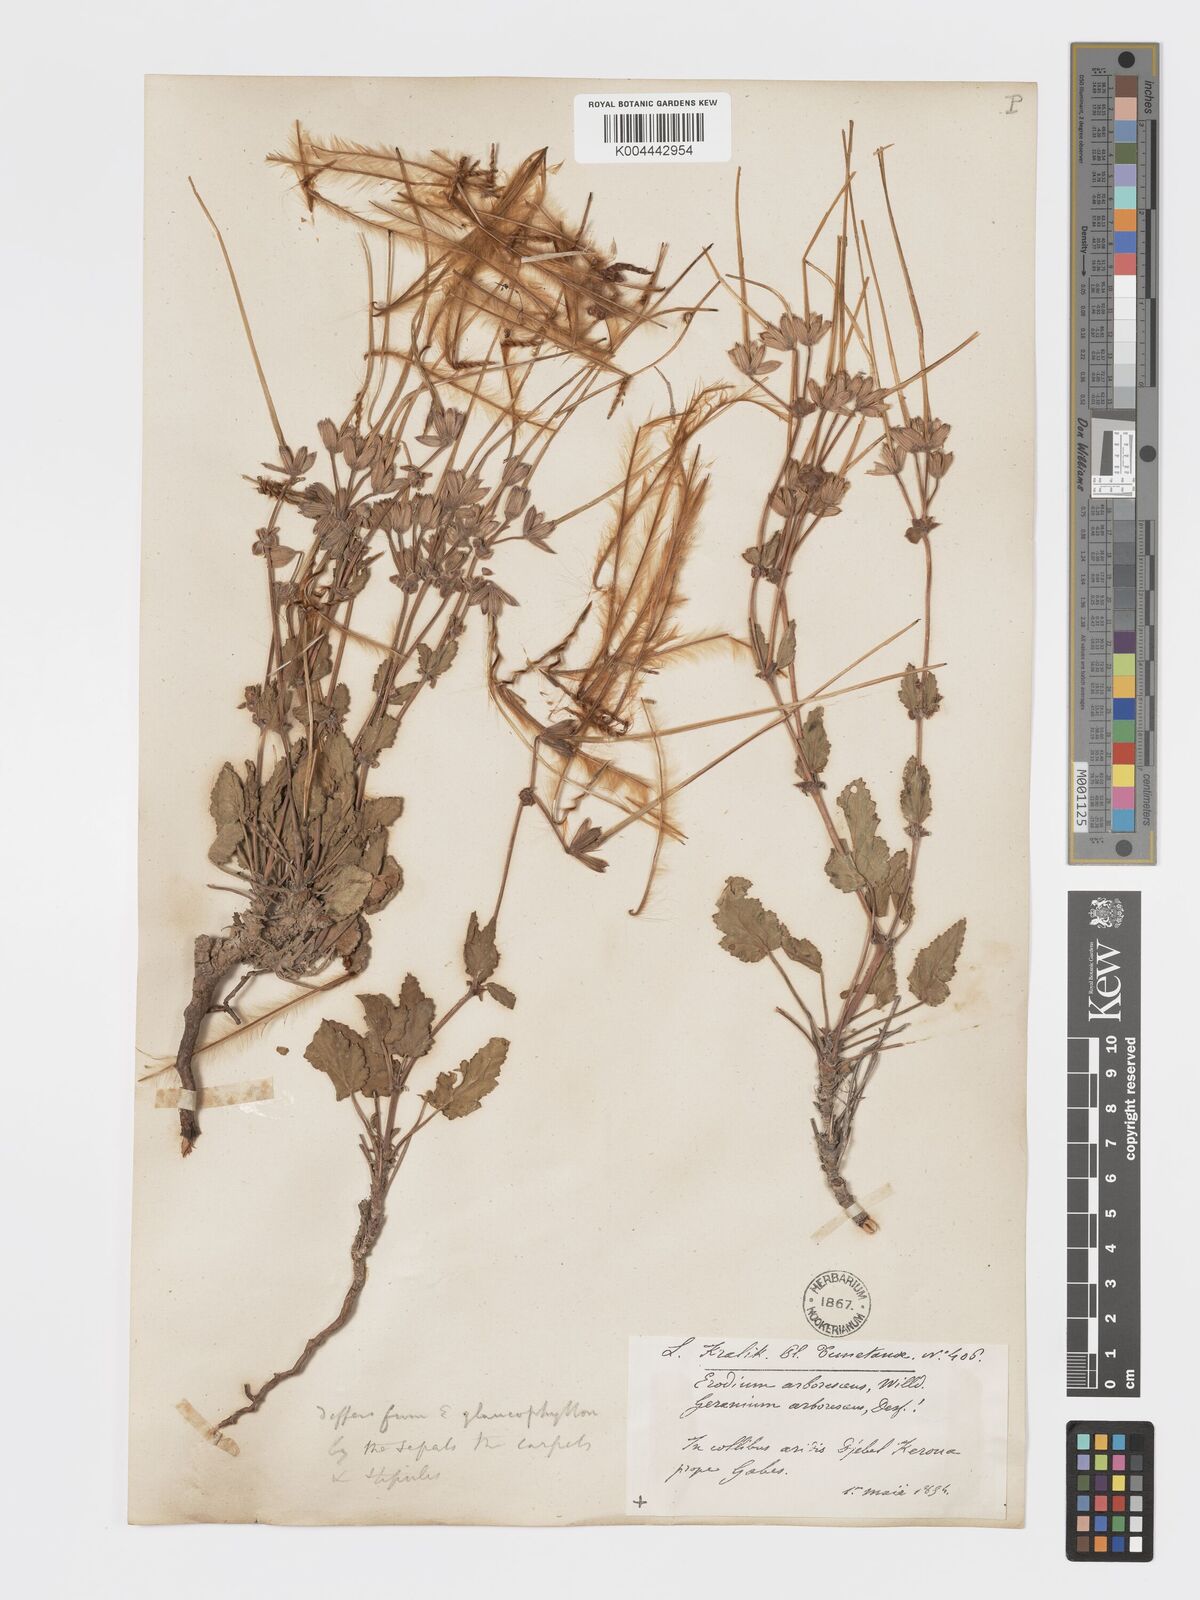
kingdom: Plantae
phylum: Tracheophyta
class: Magnoliopsida
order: Geraniales
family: Geraniaceae
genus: Erodium
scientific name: Erodium arborescens
